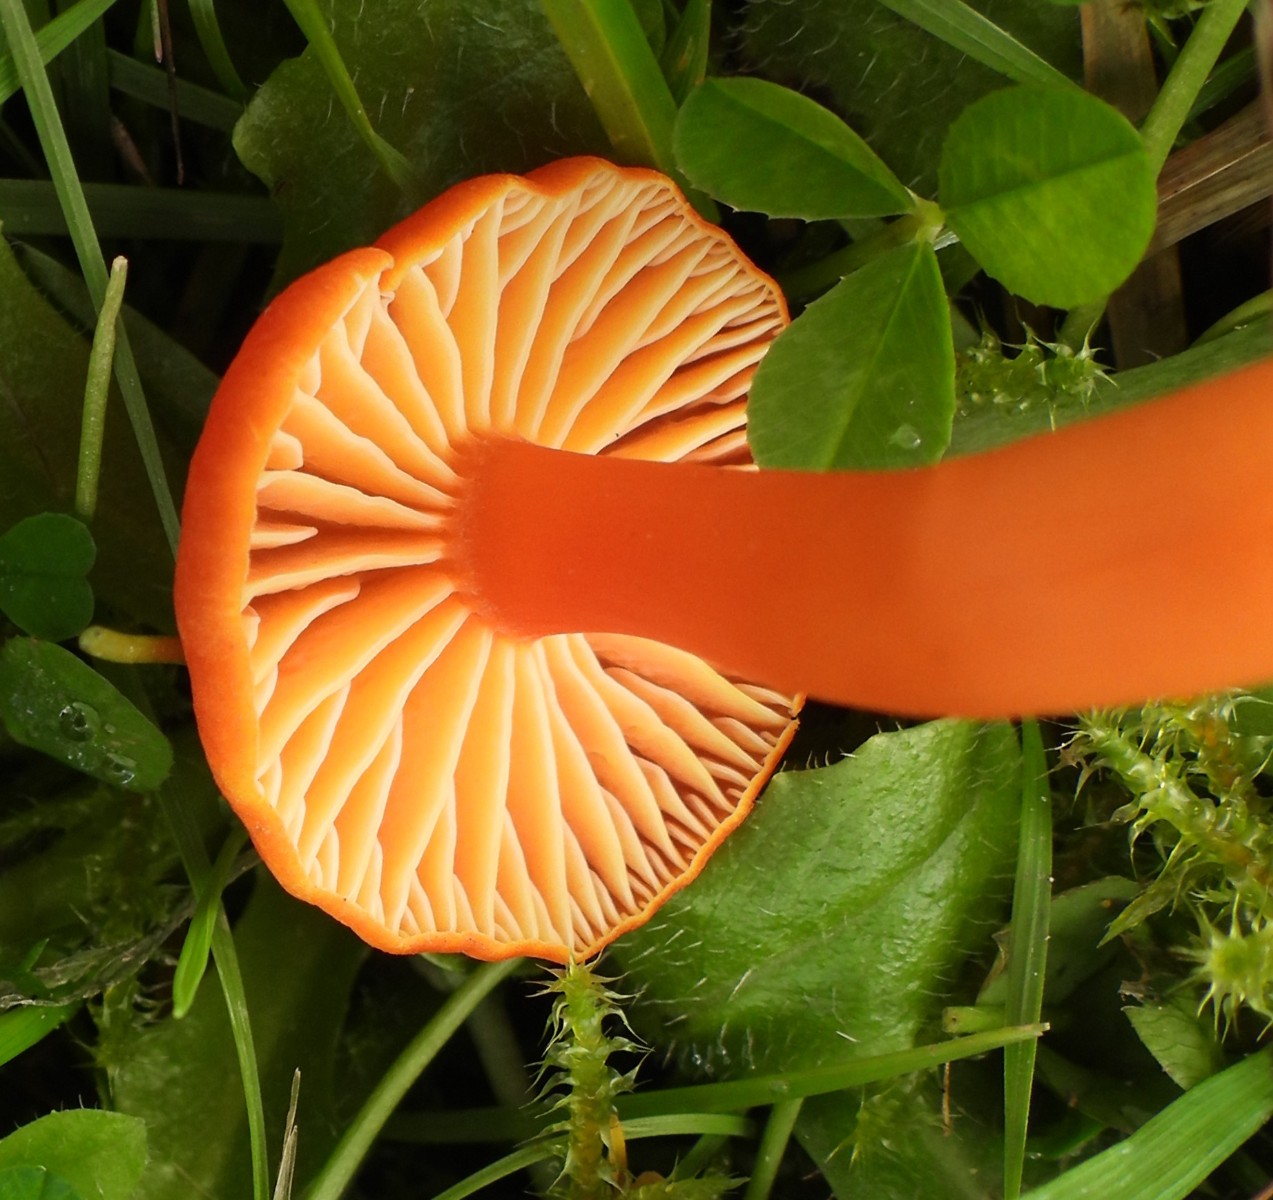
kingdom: Fungi
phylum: Basidiomycota
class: Agaricomycetes
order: Agaricales
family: Hygrophoraceae
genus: Hygrocybe
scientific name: Hygrocybe miniata
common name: mønje-vokshat
